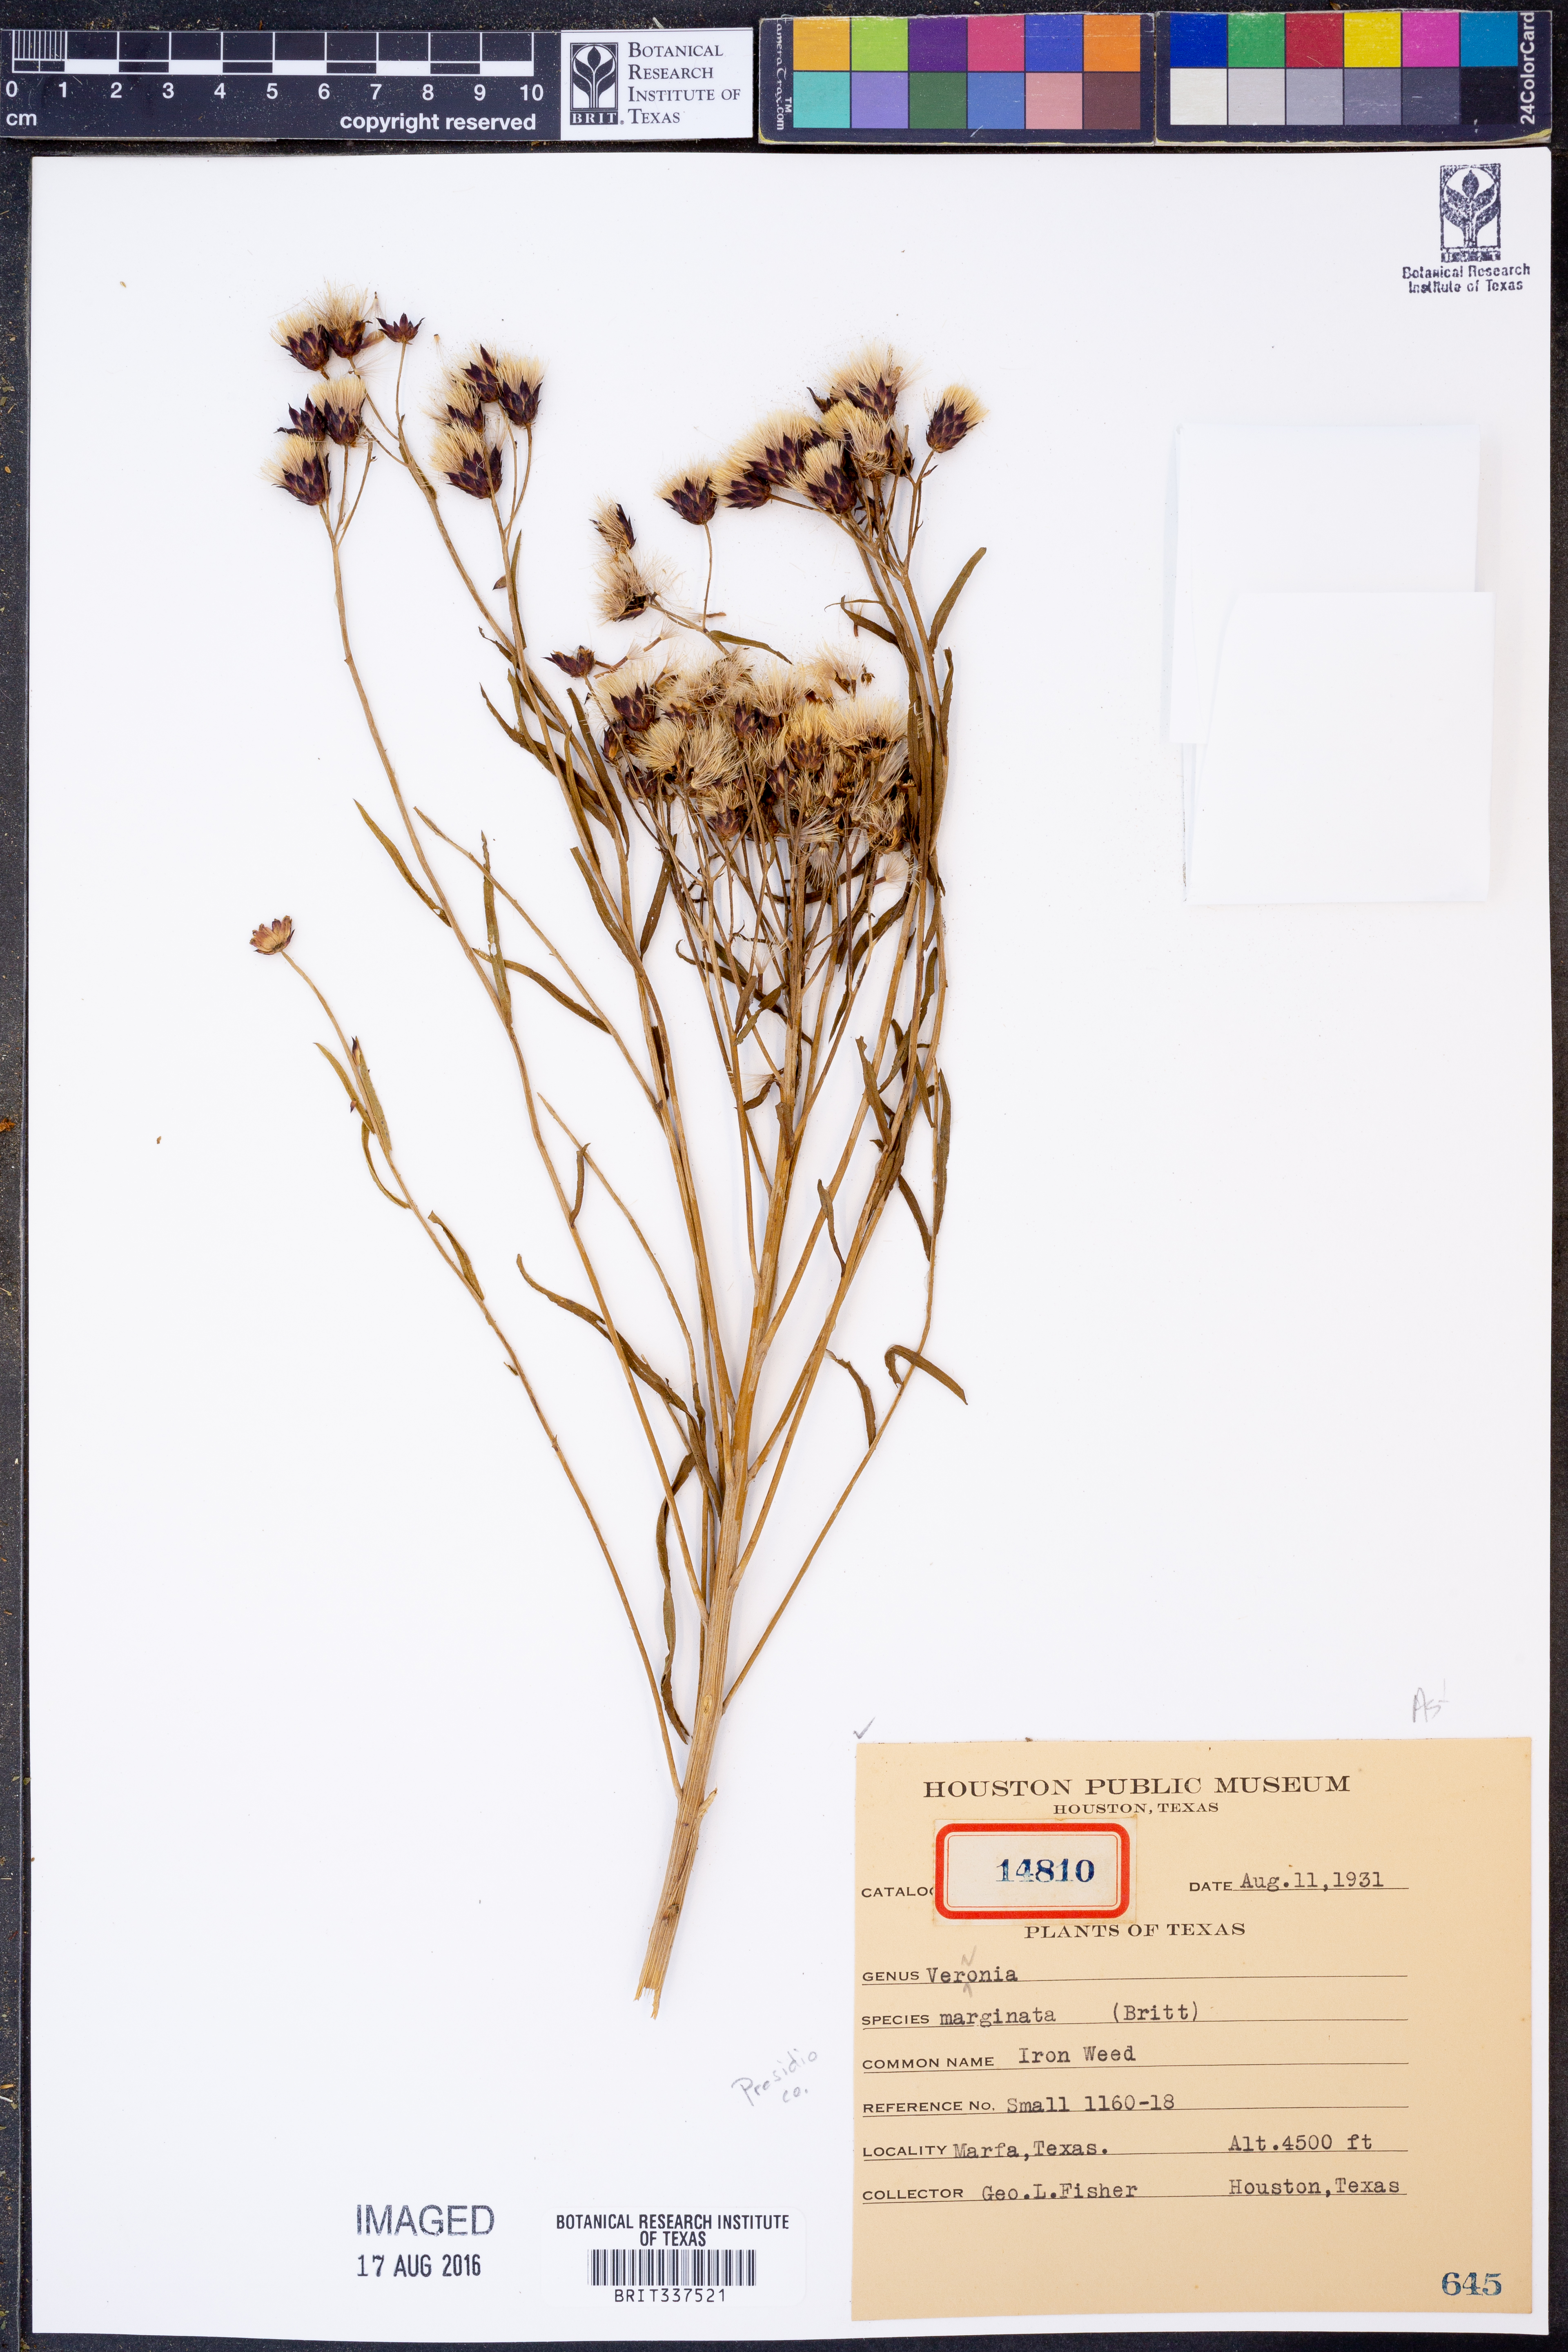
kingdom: Plantae
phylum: Tracheophyta
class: Magnoliopsida
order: Asterales
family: Asteraceae
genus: Vernonia
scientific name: Vernonia marginata
